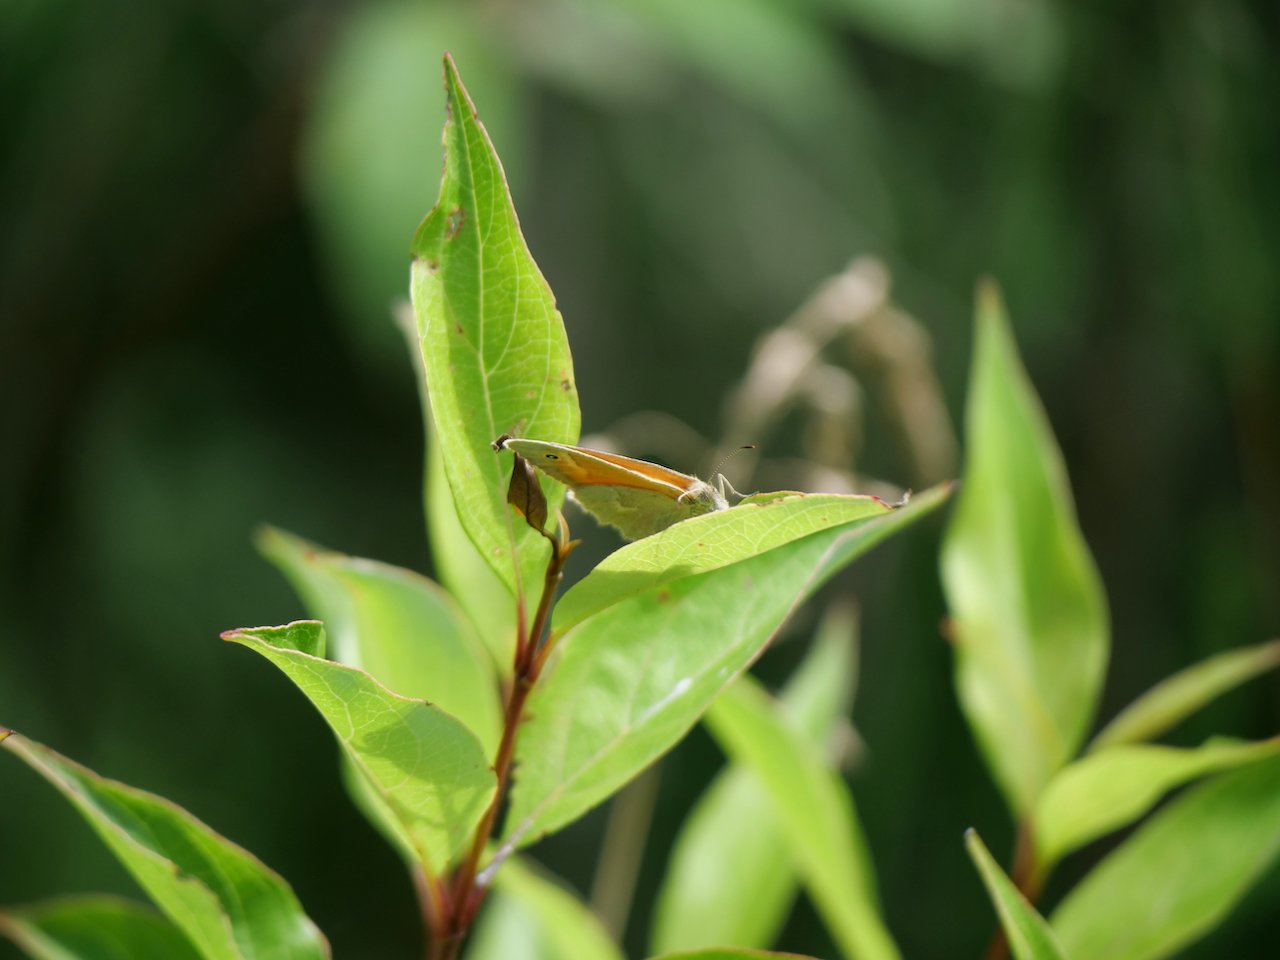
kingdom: Animalia
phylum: Arthropoda
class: Insecta
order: Lepidoptera
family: Nymphalidae
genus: Coenonympha
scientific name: Coenonympha tullia
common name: Large Heath
